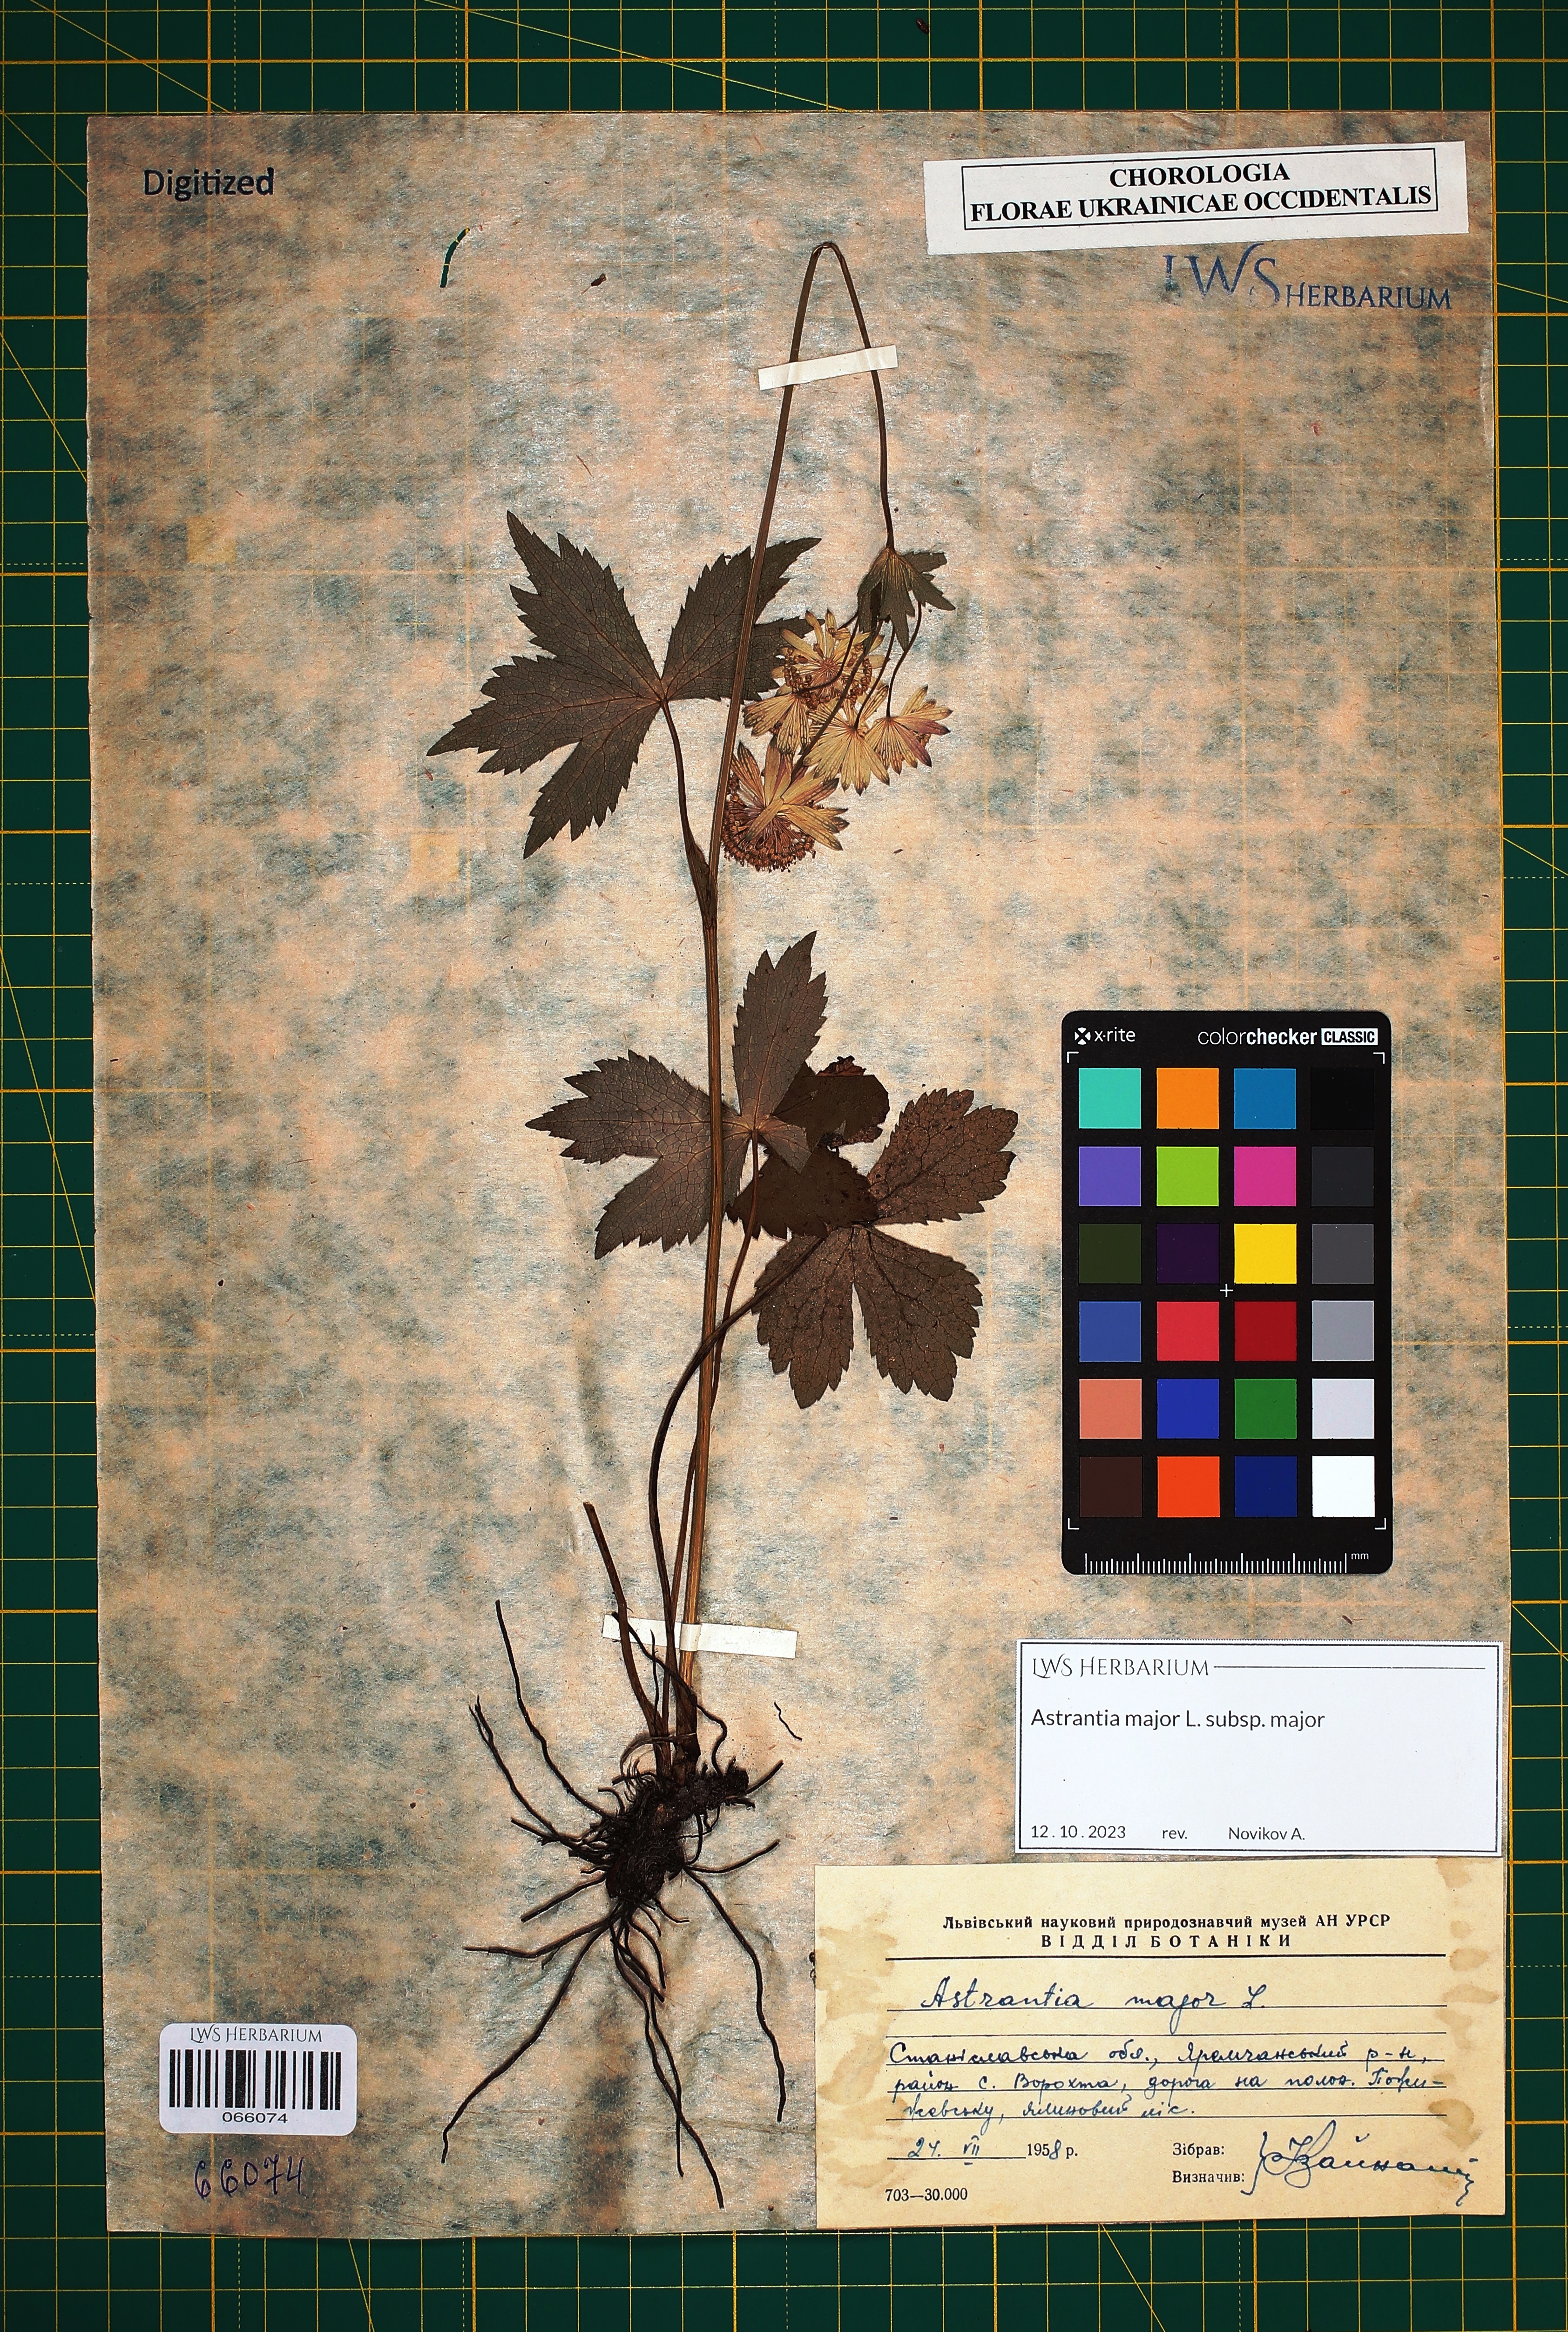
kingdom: Plantae
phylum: Tracheophyta
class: Magnoliopsida
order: Apiales
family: Apiaceae
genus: Astrantia
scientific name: Astrantia major
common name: Greater masterwort
